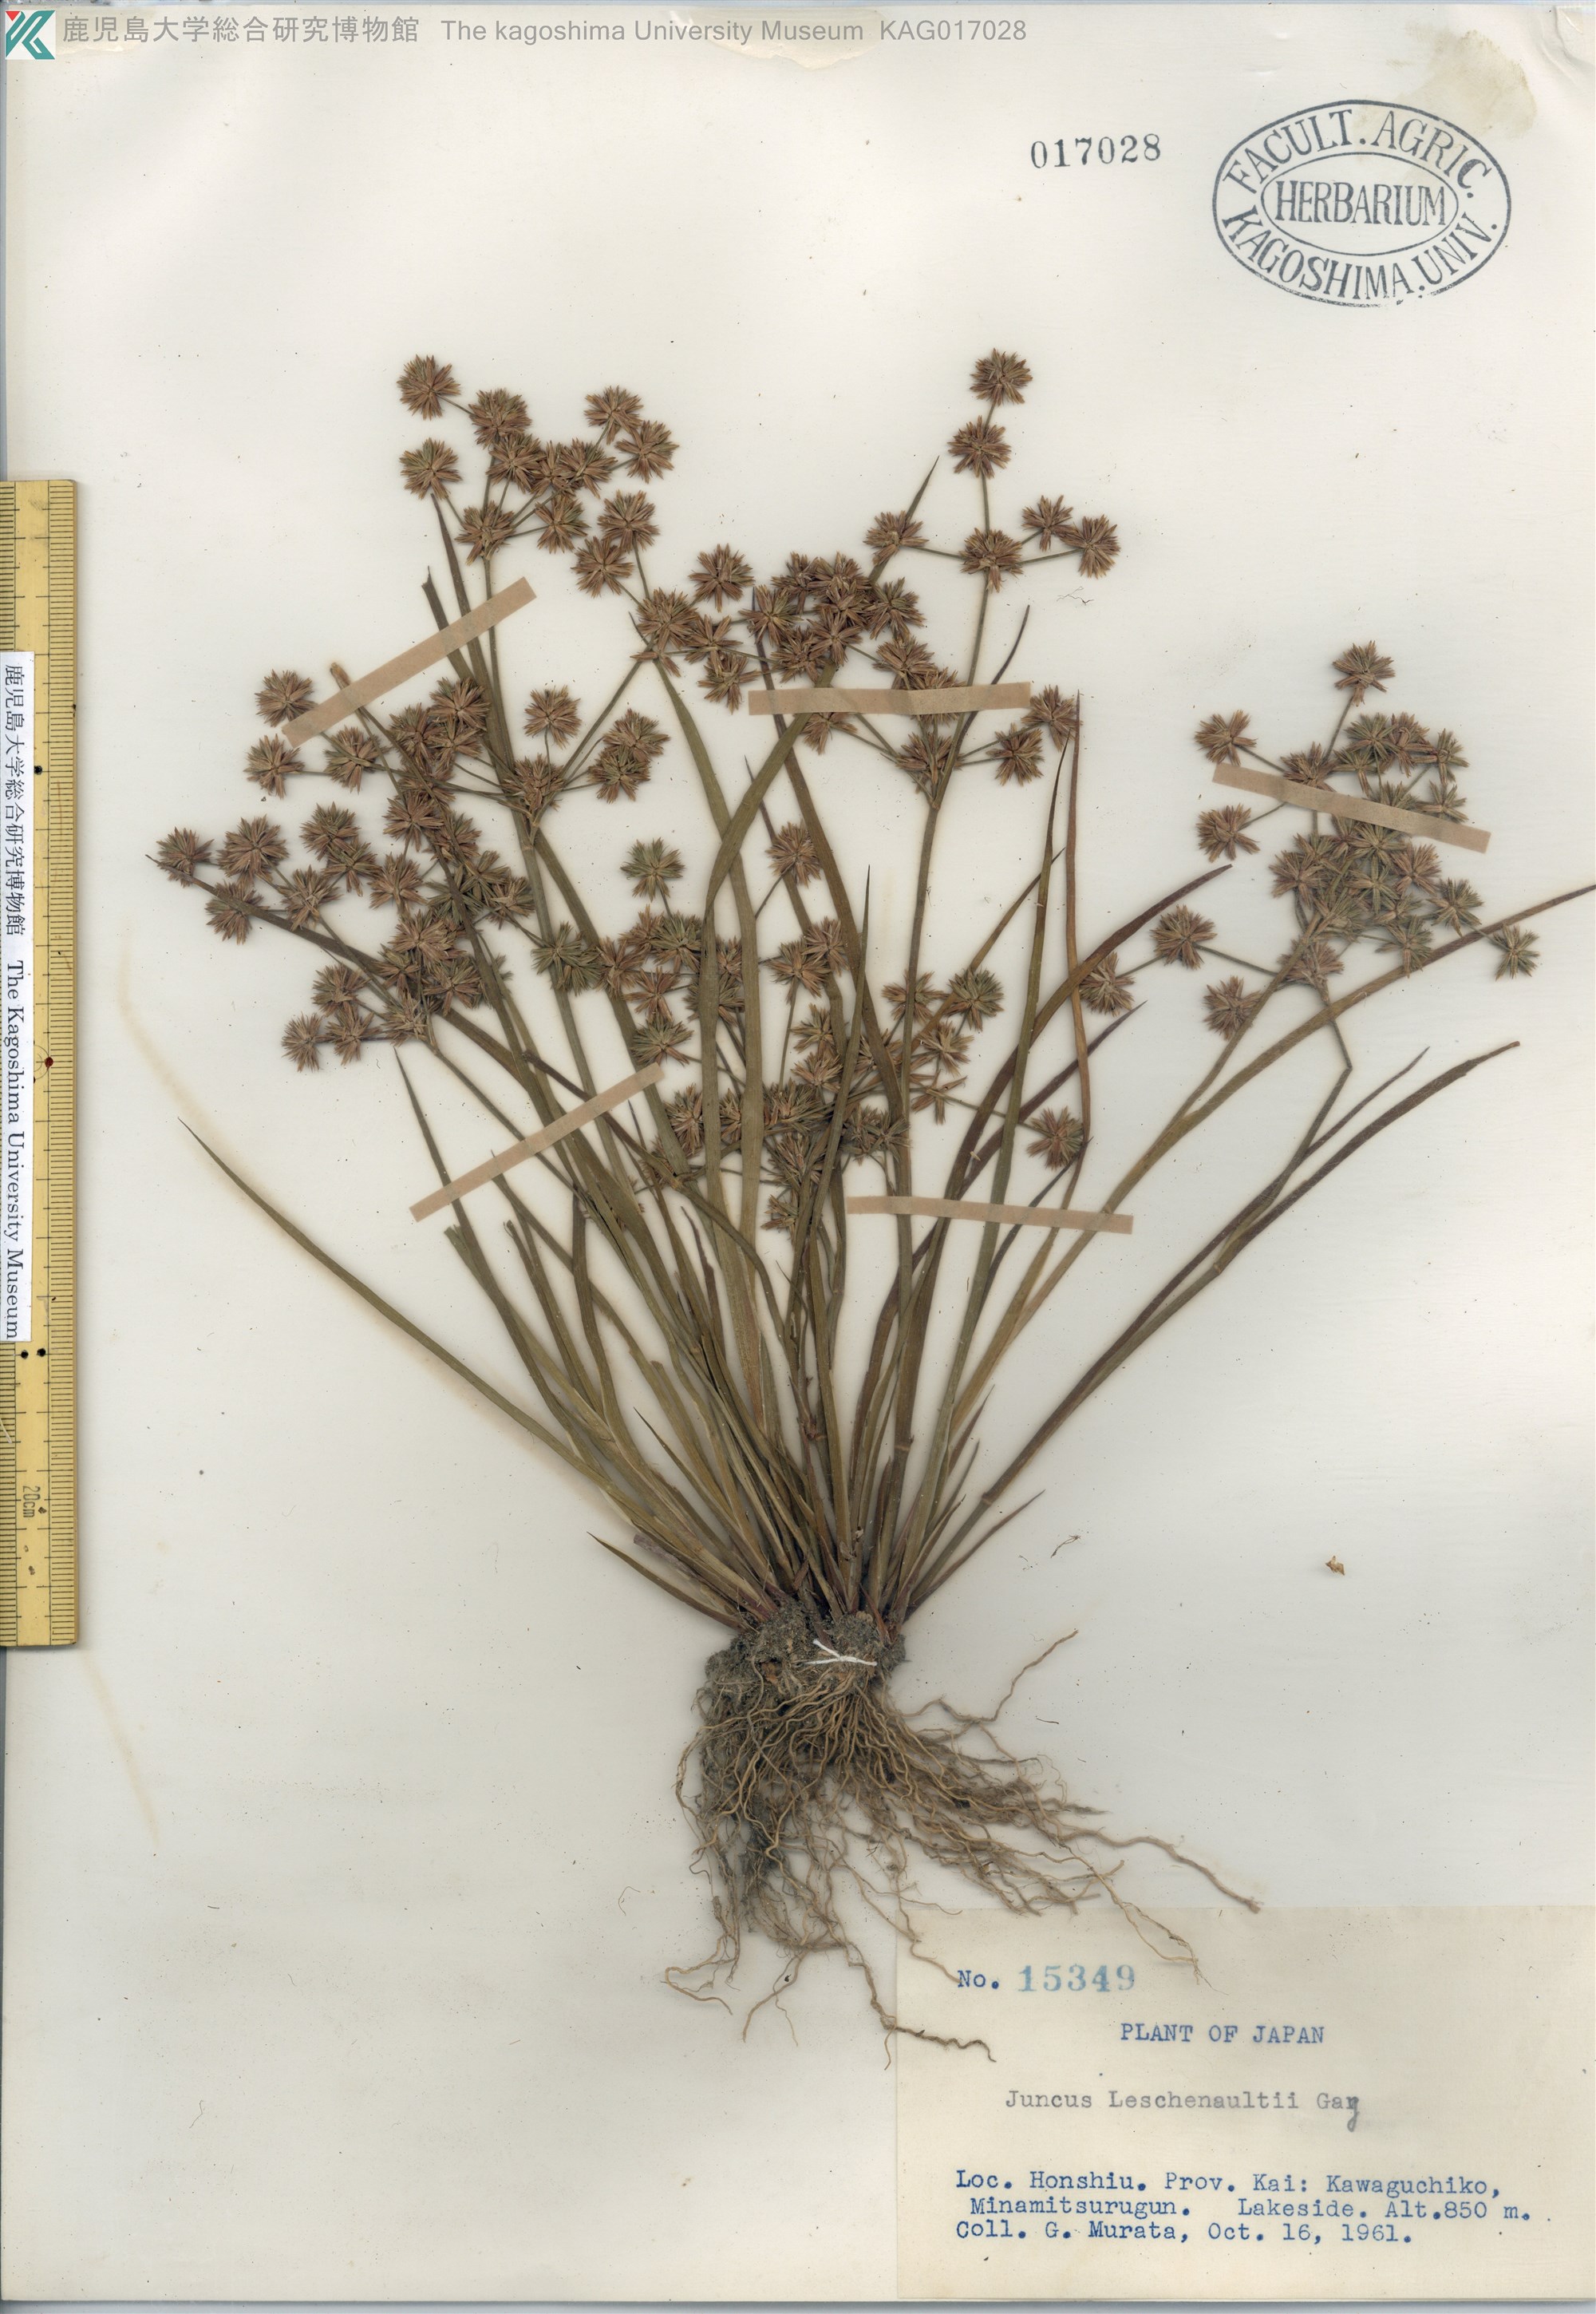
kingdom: Plantae
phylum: Tracheophyta
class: Liliopsida
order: Poales
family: Juncaceae
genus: Juncus
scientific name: Juncus prismatocarpus
